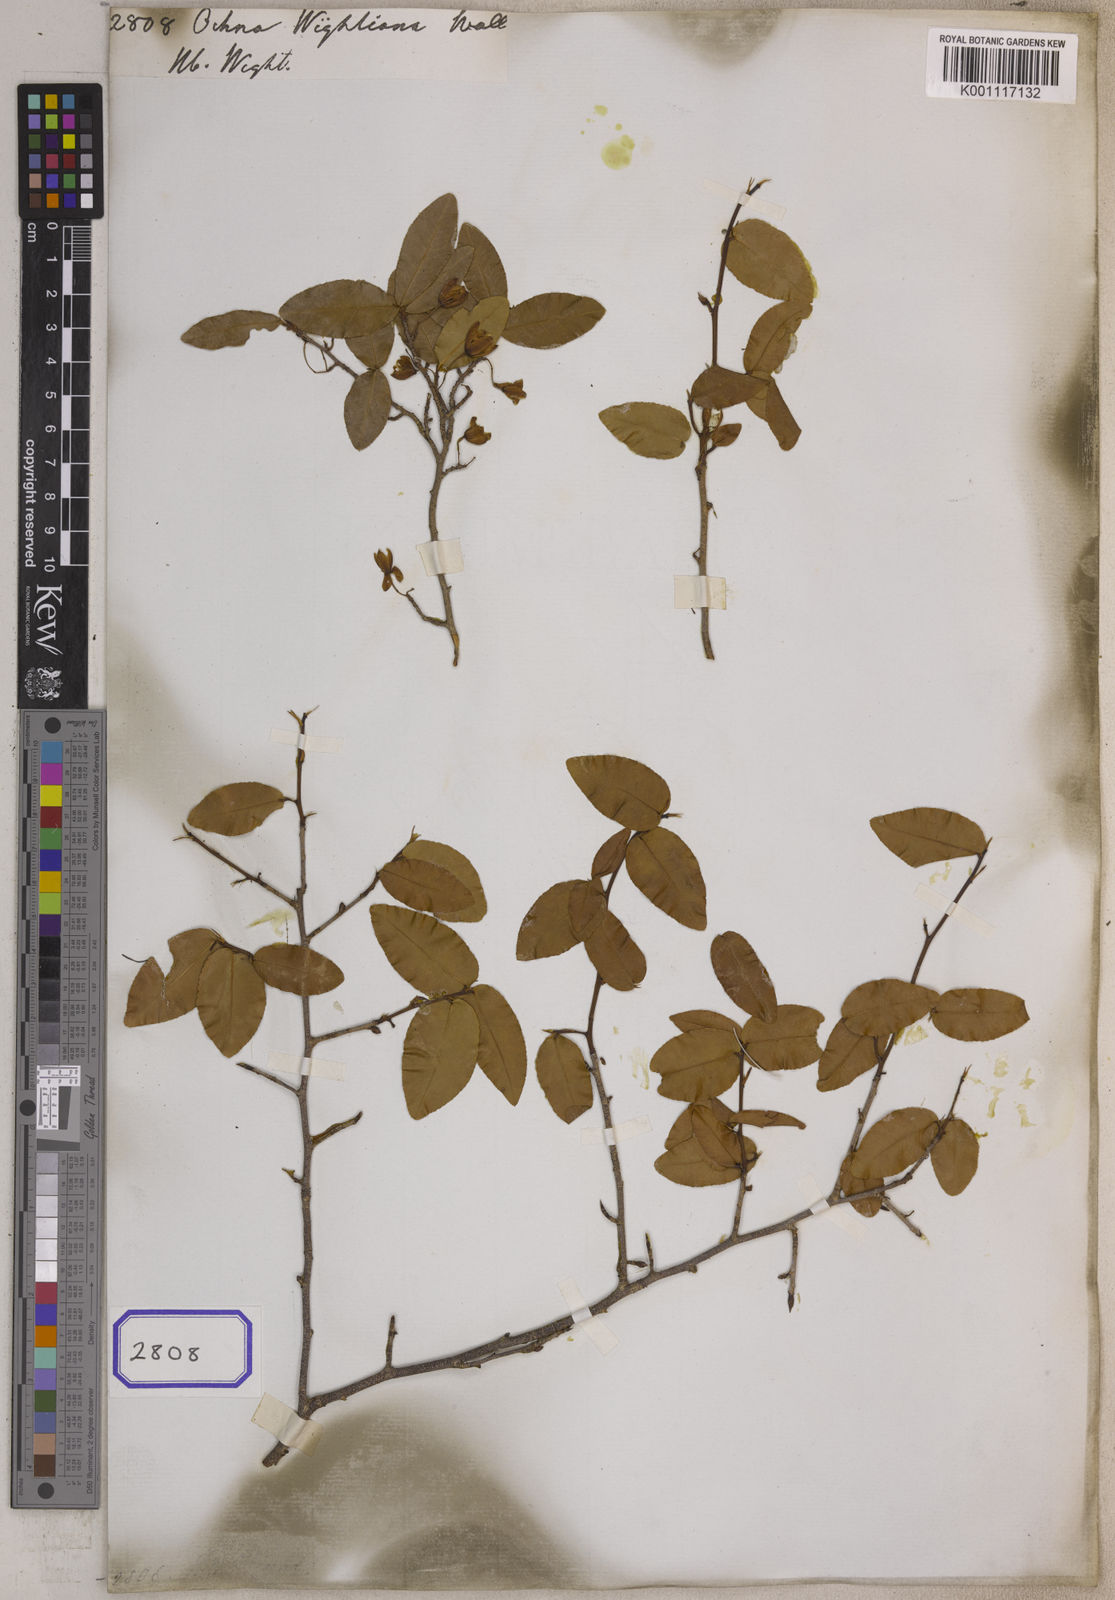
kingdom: Plantae
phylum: Tracheophyta
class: Magnoliopsida
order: Malpighiales
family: Ochnaceae
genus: Ochna
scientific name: Ochna
